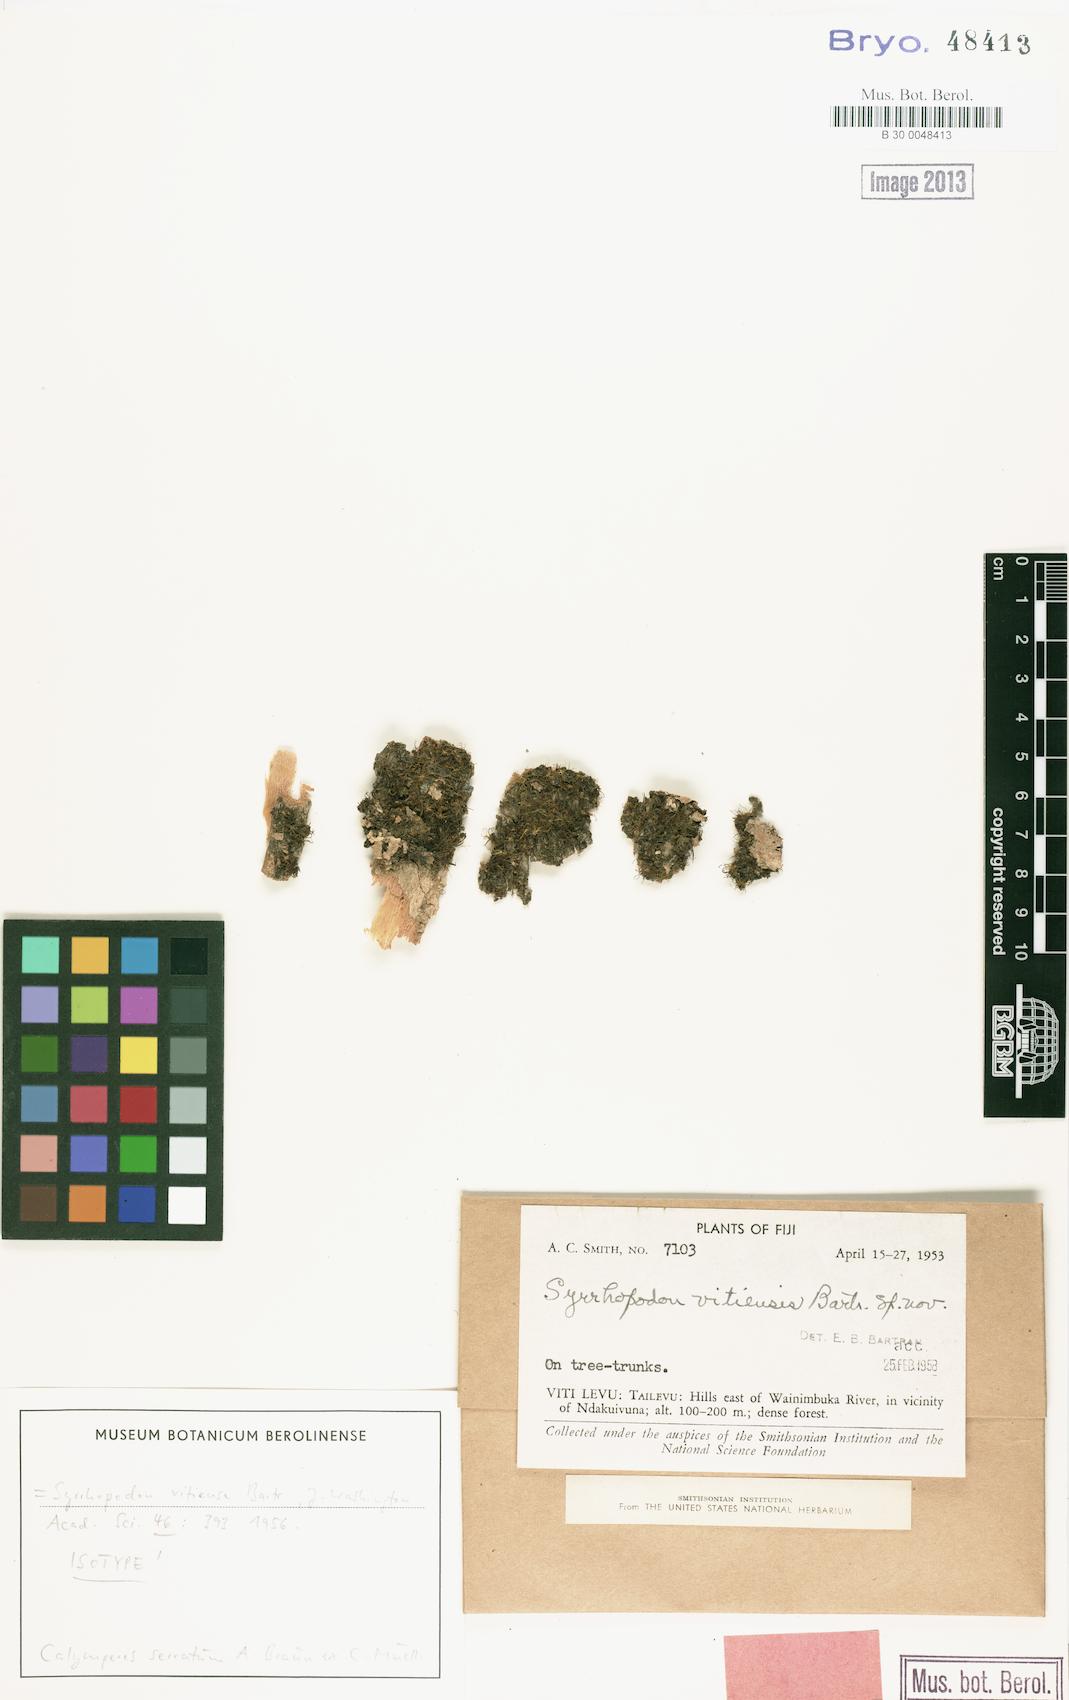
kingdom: Plantae
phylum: Bryophyta
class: Bryopsida
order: Dicranales
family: Calymperaceae
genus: Calymperes
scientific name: Calymperes serratum
